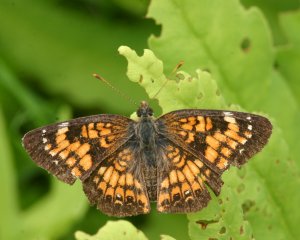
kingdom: Animalia
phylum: Arthropoda
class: Insecta
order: Lepidoptera
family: Nymphalidae
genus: Chlosyne
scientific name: Chlosyne harrisii
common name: Harris's Checkerspot
